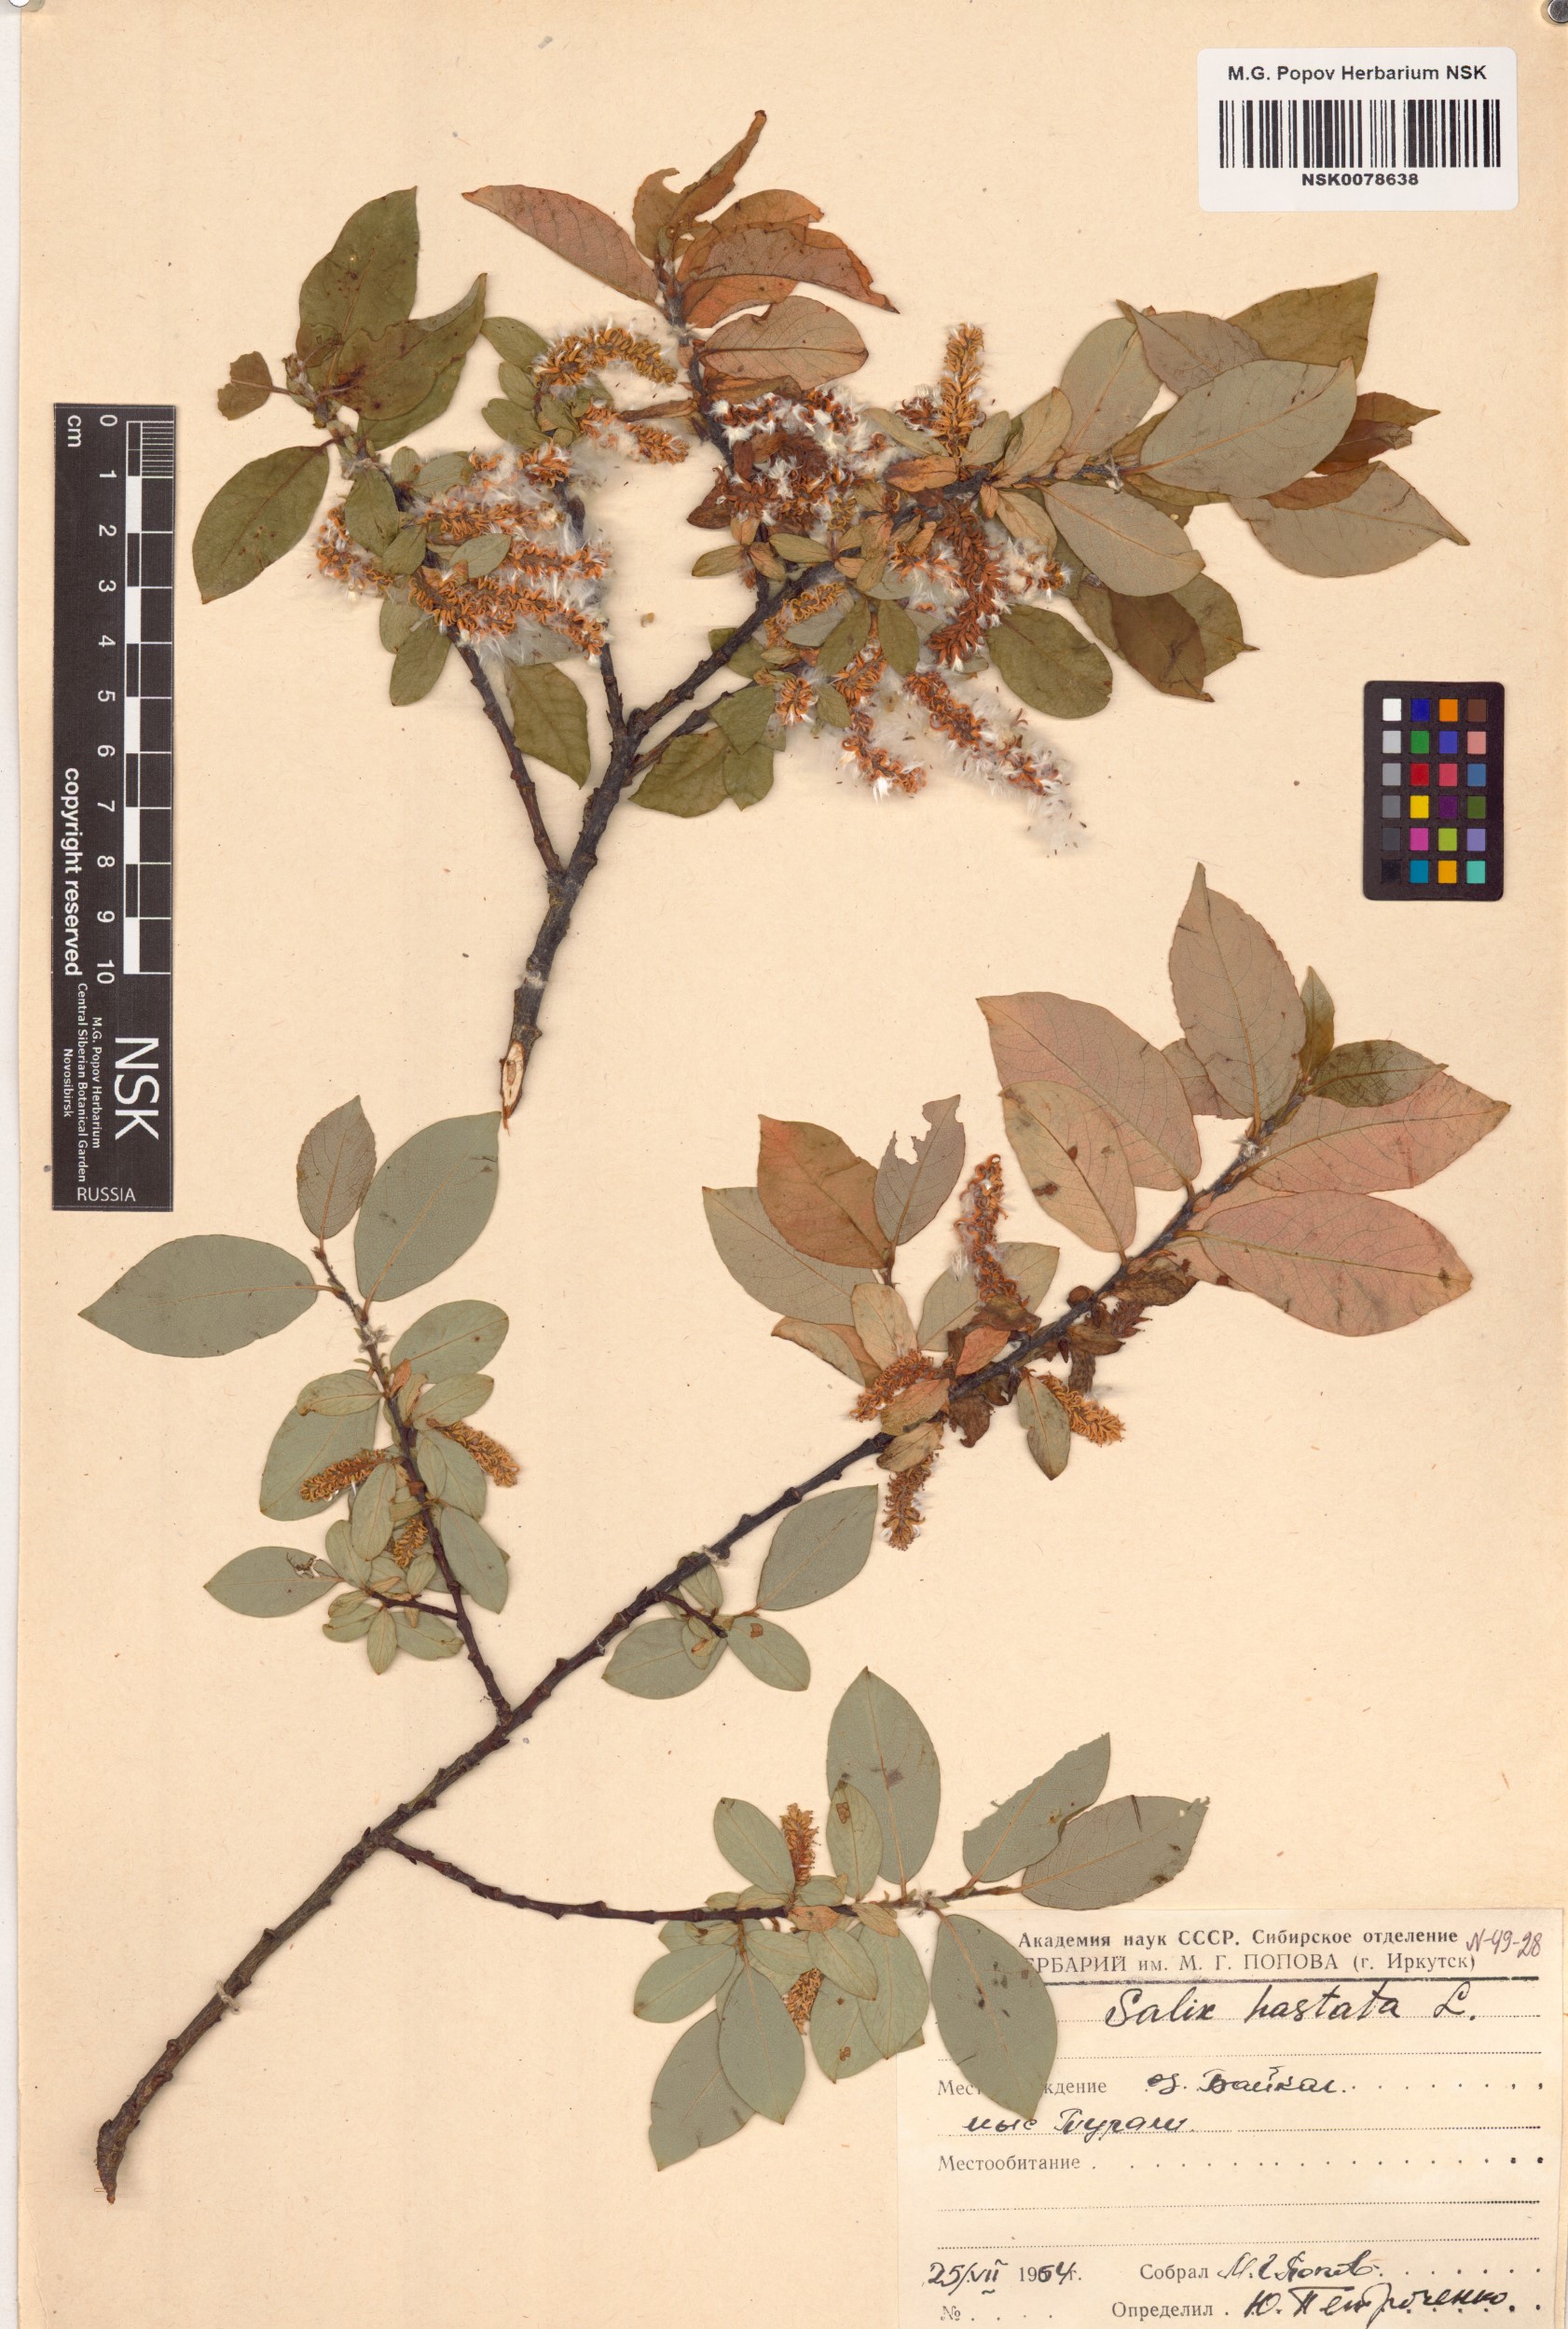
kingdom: Plantae
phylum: Tracheophyta
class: Magnoliopsida
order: Malpighiales
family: Salicaceae
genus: Salix
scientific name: Salix hastata
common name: Halberd willow
